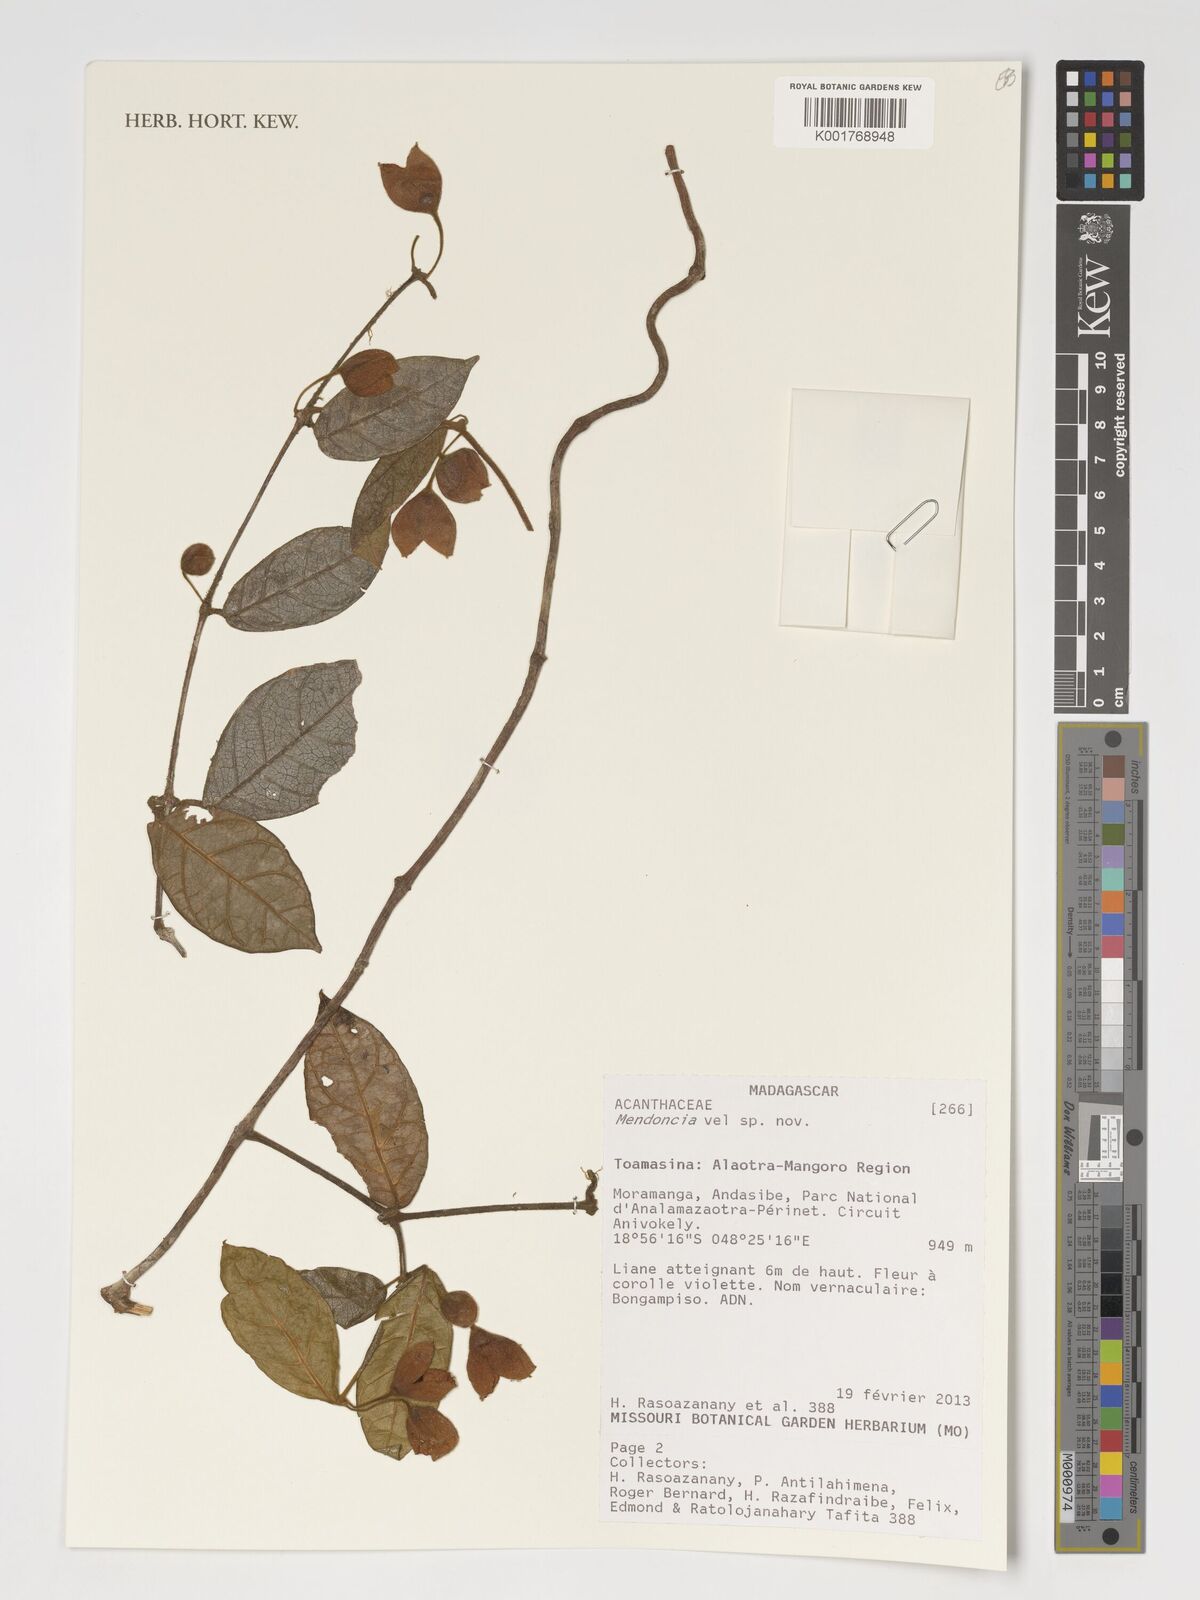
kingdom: Plantae
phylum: Tracheophyta
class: Magnoliopsida
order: Lamiales
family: Acanthaceae
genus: Mendoncia
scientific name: Mendoncia
